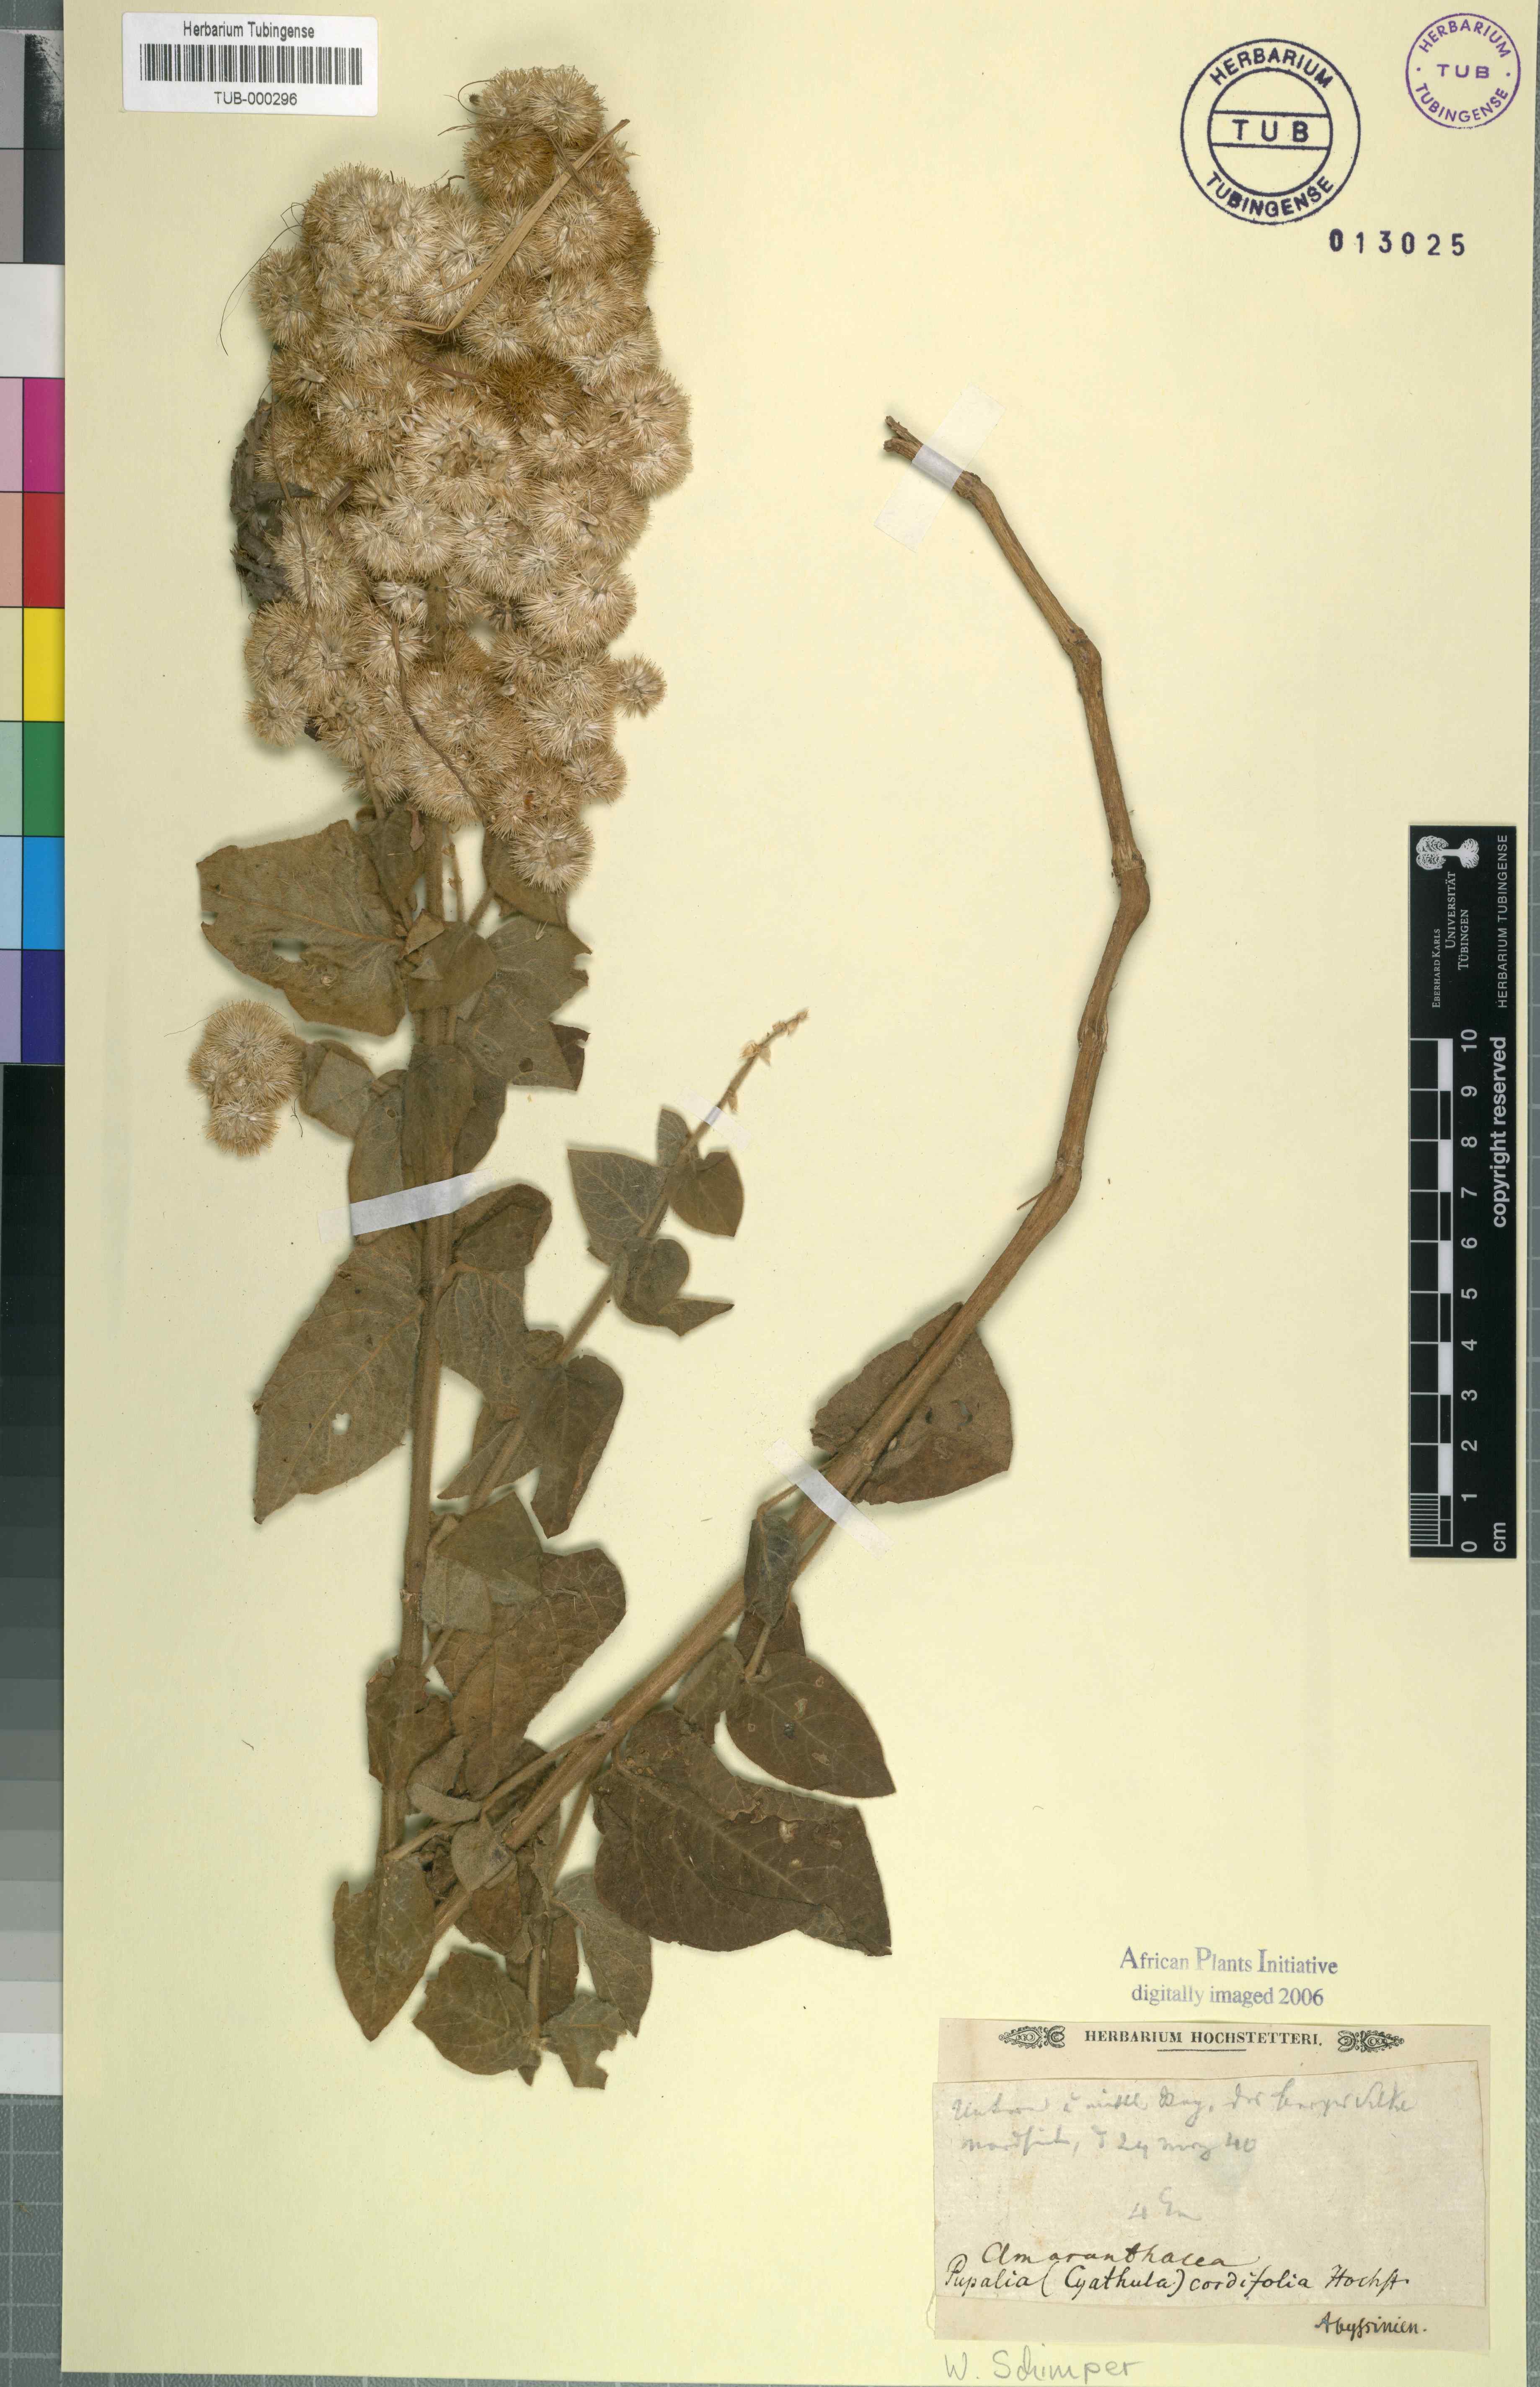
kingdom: Plantae
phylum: Tracheophyta
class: Magnoliopsida
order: Caryophyllales
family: Amaranthaceae
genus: Cyathula
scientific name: Cyathula polycephala
